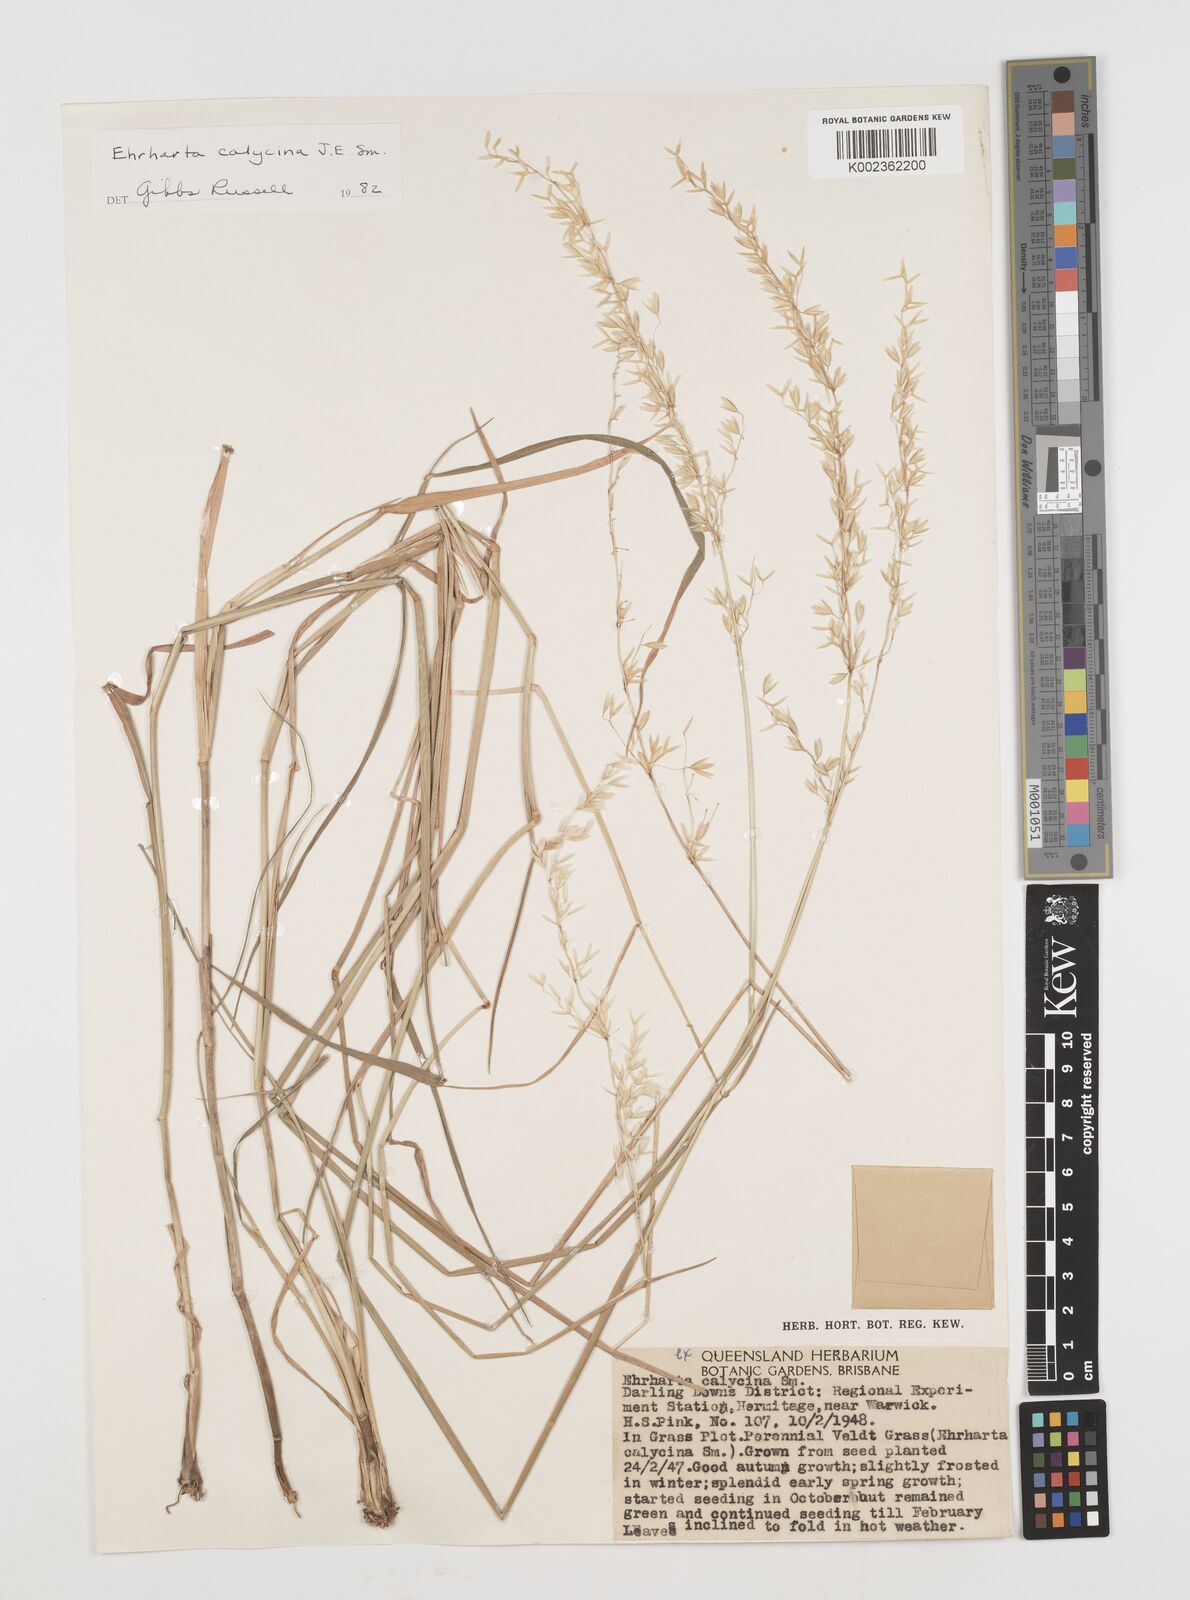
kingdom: Plantae
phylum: Tracheophyta
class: Liliopsida
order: Poales
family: Poaceae
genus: Ehrharta
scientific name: Ehrharta calycina
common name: Perennial veldtgrass
